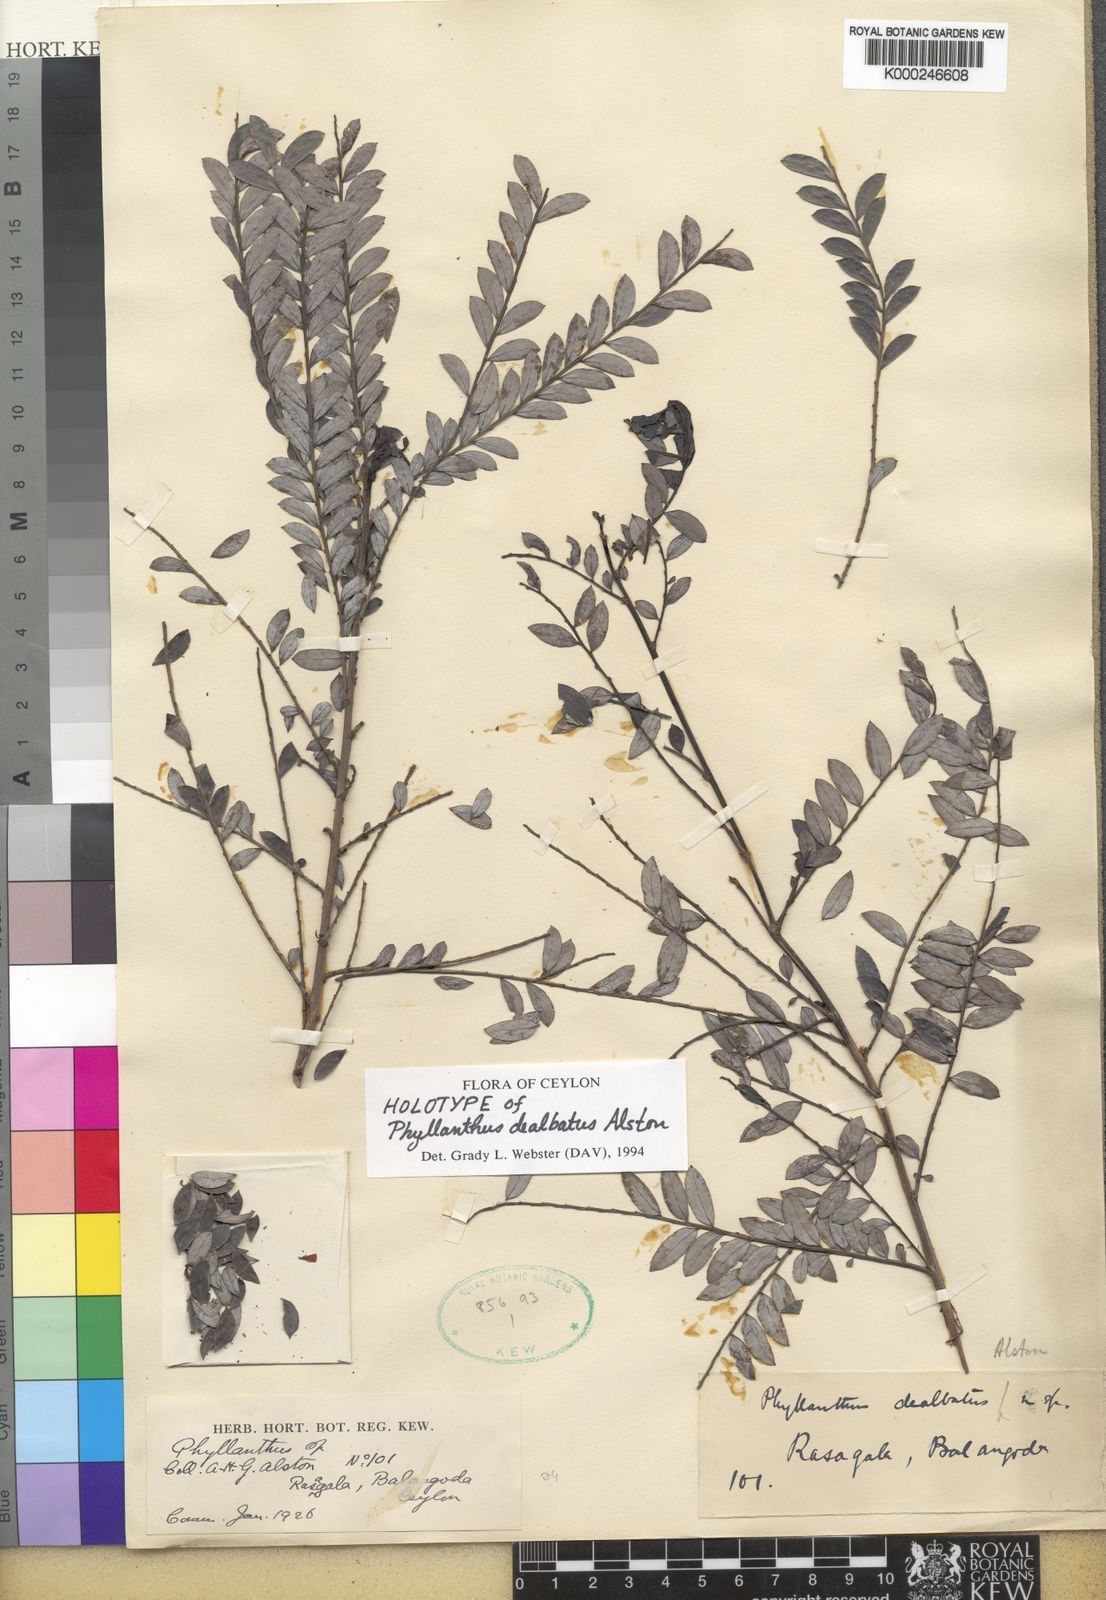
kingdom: Plantae
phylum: Tracheophyta
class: Magnoliopsida
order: Malpighiales
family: Phyllanthaceae
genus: Phyllanthus
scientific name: Phyllanthus dealbatus
